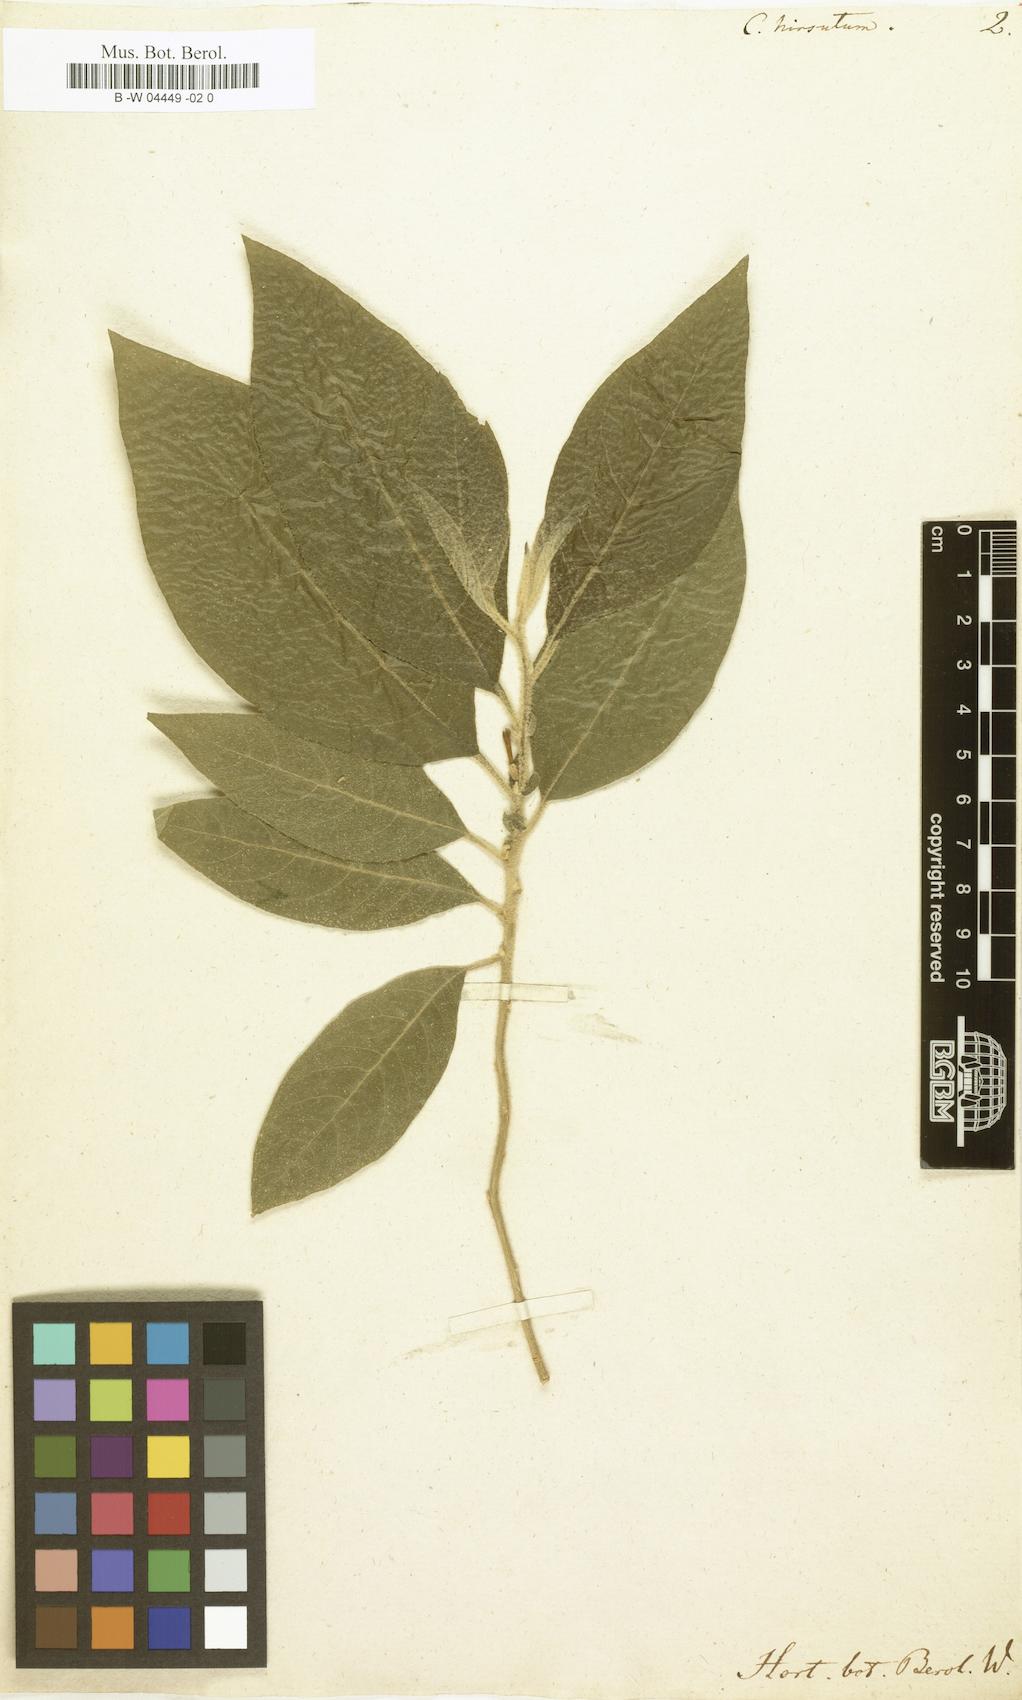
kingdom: Plantae
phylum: Tracheophyta
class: Magnoliopsida
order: Solanales
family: Solanaceae
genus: Cestrum
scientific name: Cestrum tomentosum
